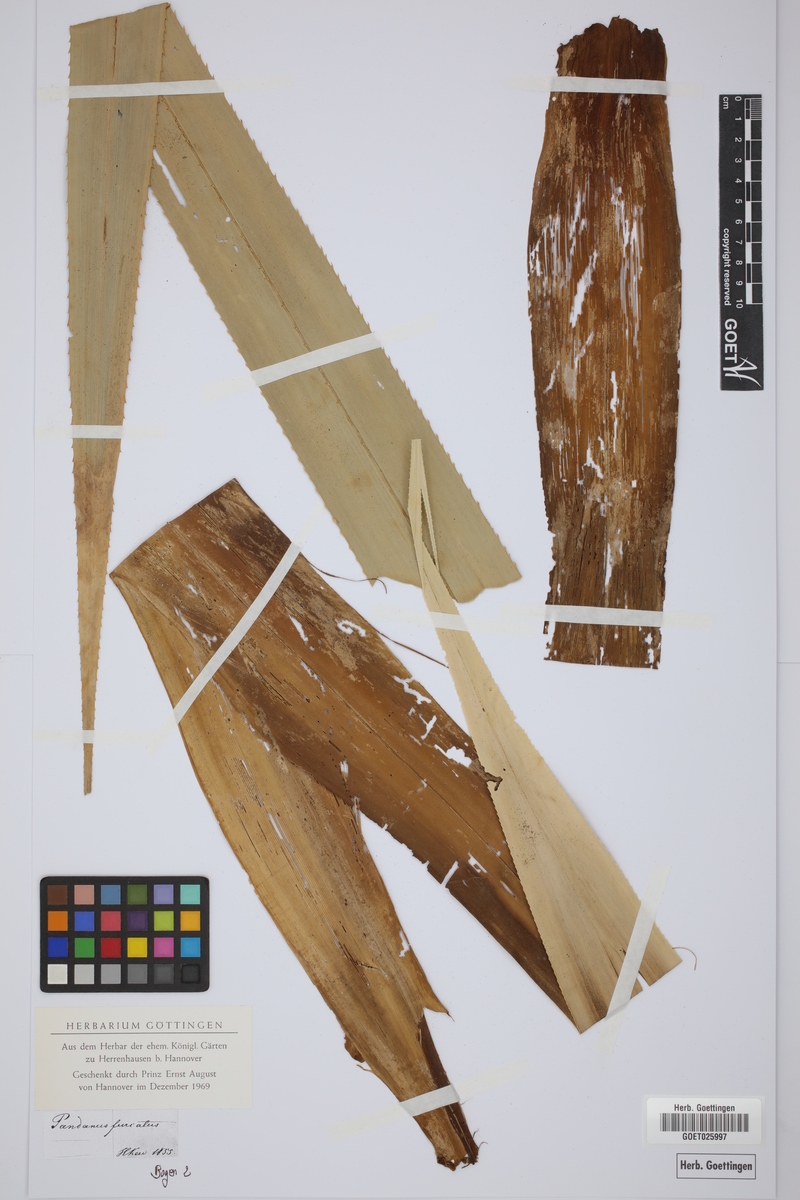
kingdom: Plantae
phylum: Tracheophyta
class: Liliopsida
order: Pandanales
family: Pandanaceae
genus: Pandanus
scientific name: Pandanus furcatus
